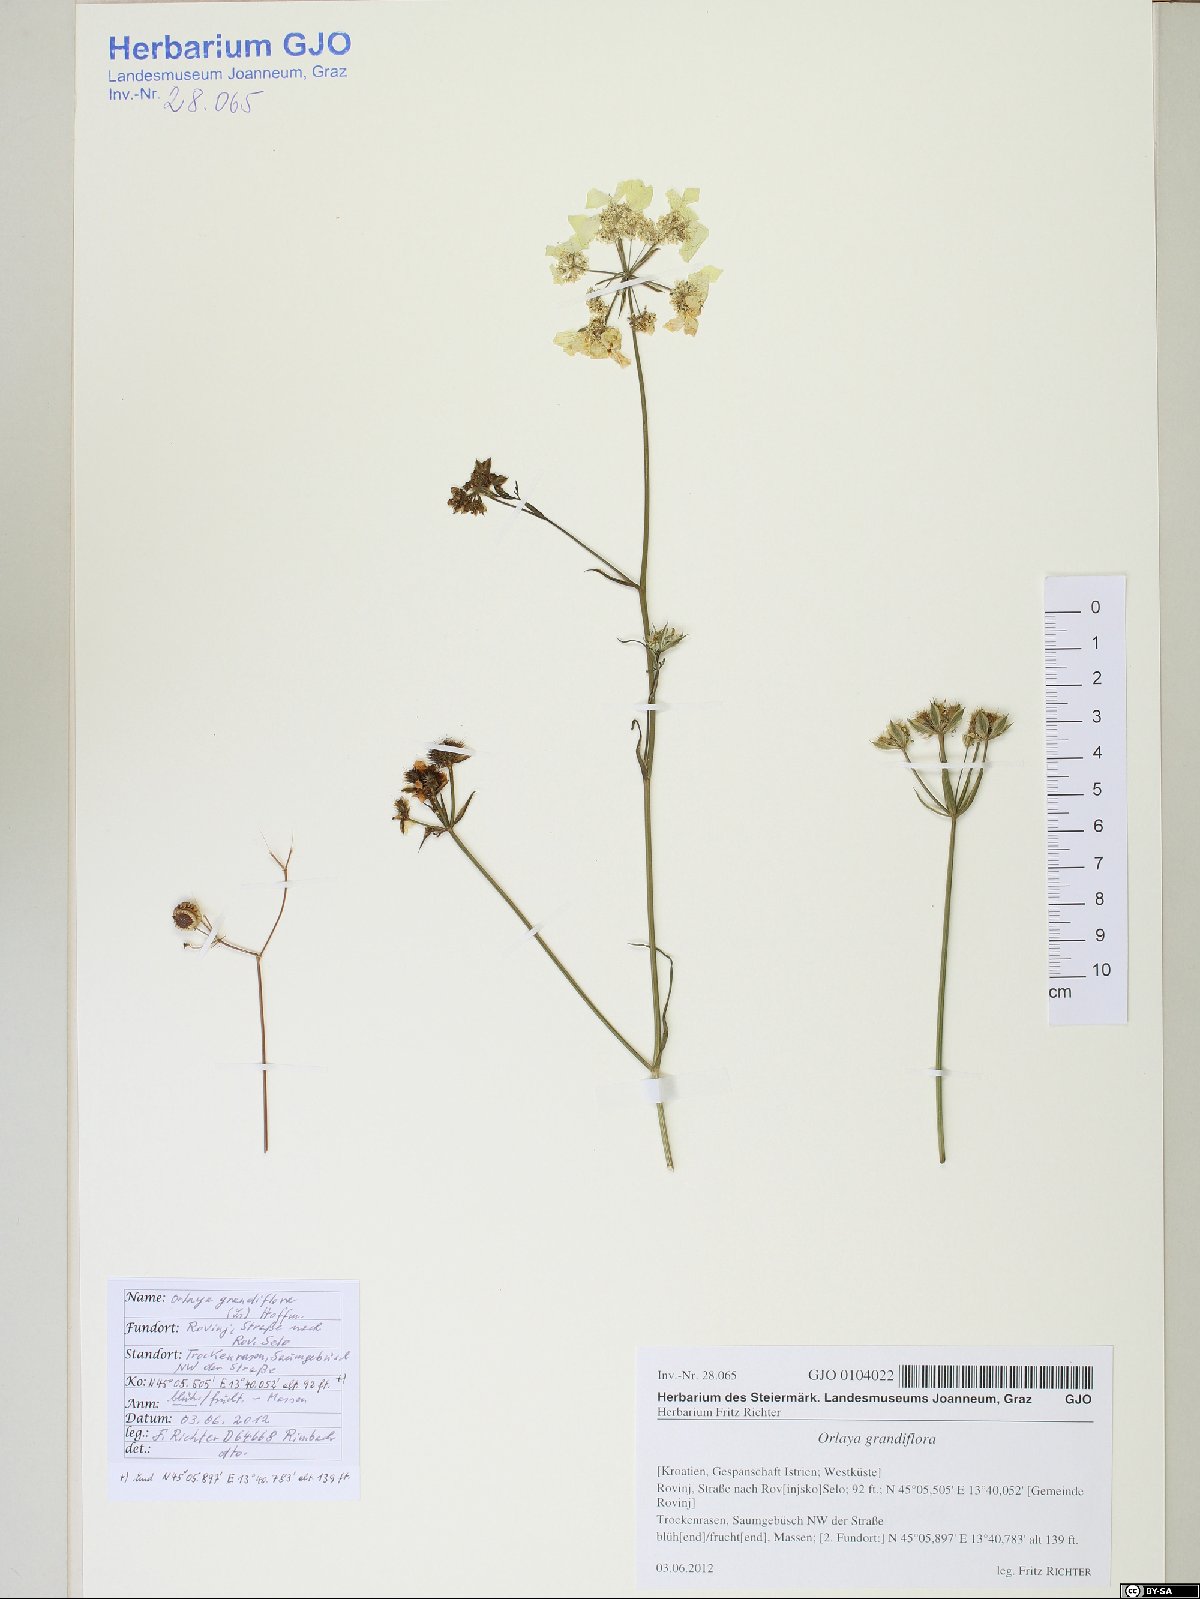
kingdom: Plantae
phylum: Tracheophyta
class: Magnoliopsida
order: Apiales
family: Apiaceae
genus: Orlaya
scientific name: Orlaya grandiflora
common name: White lace flower
